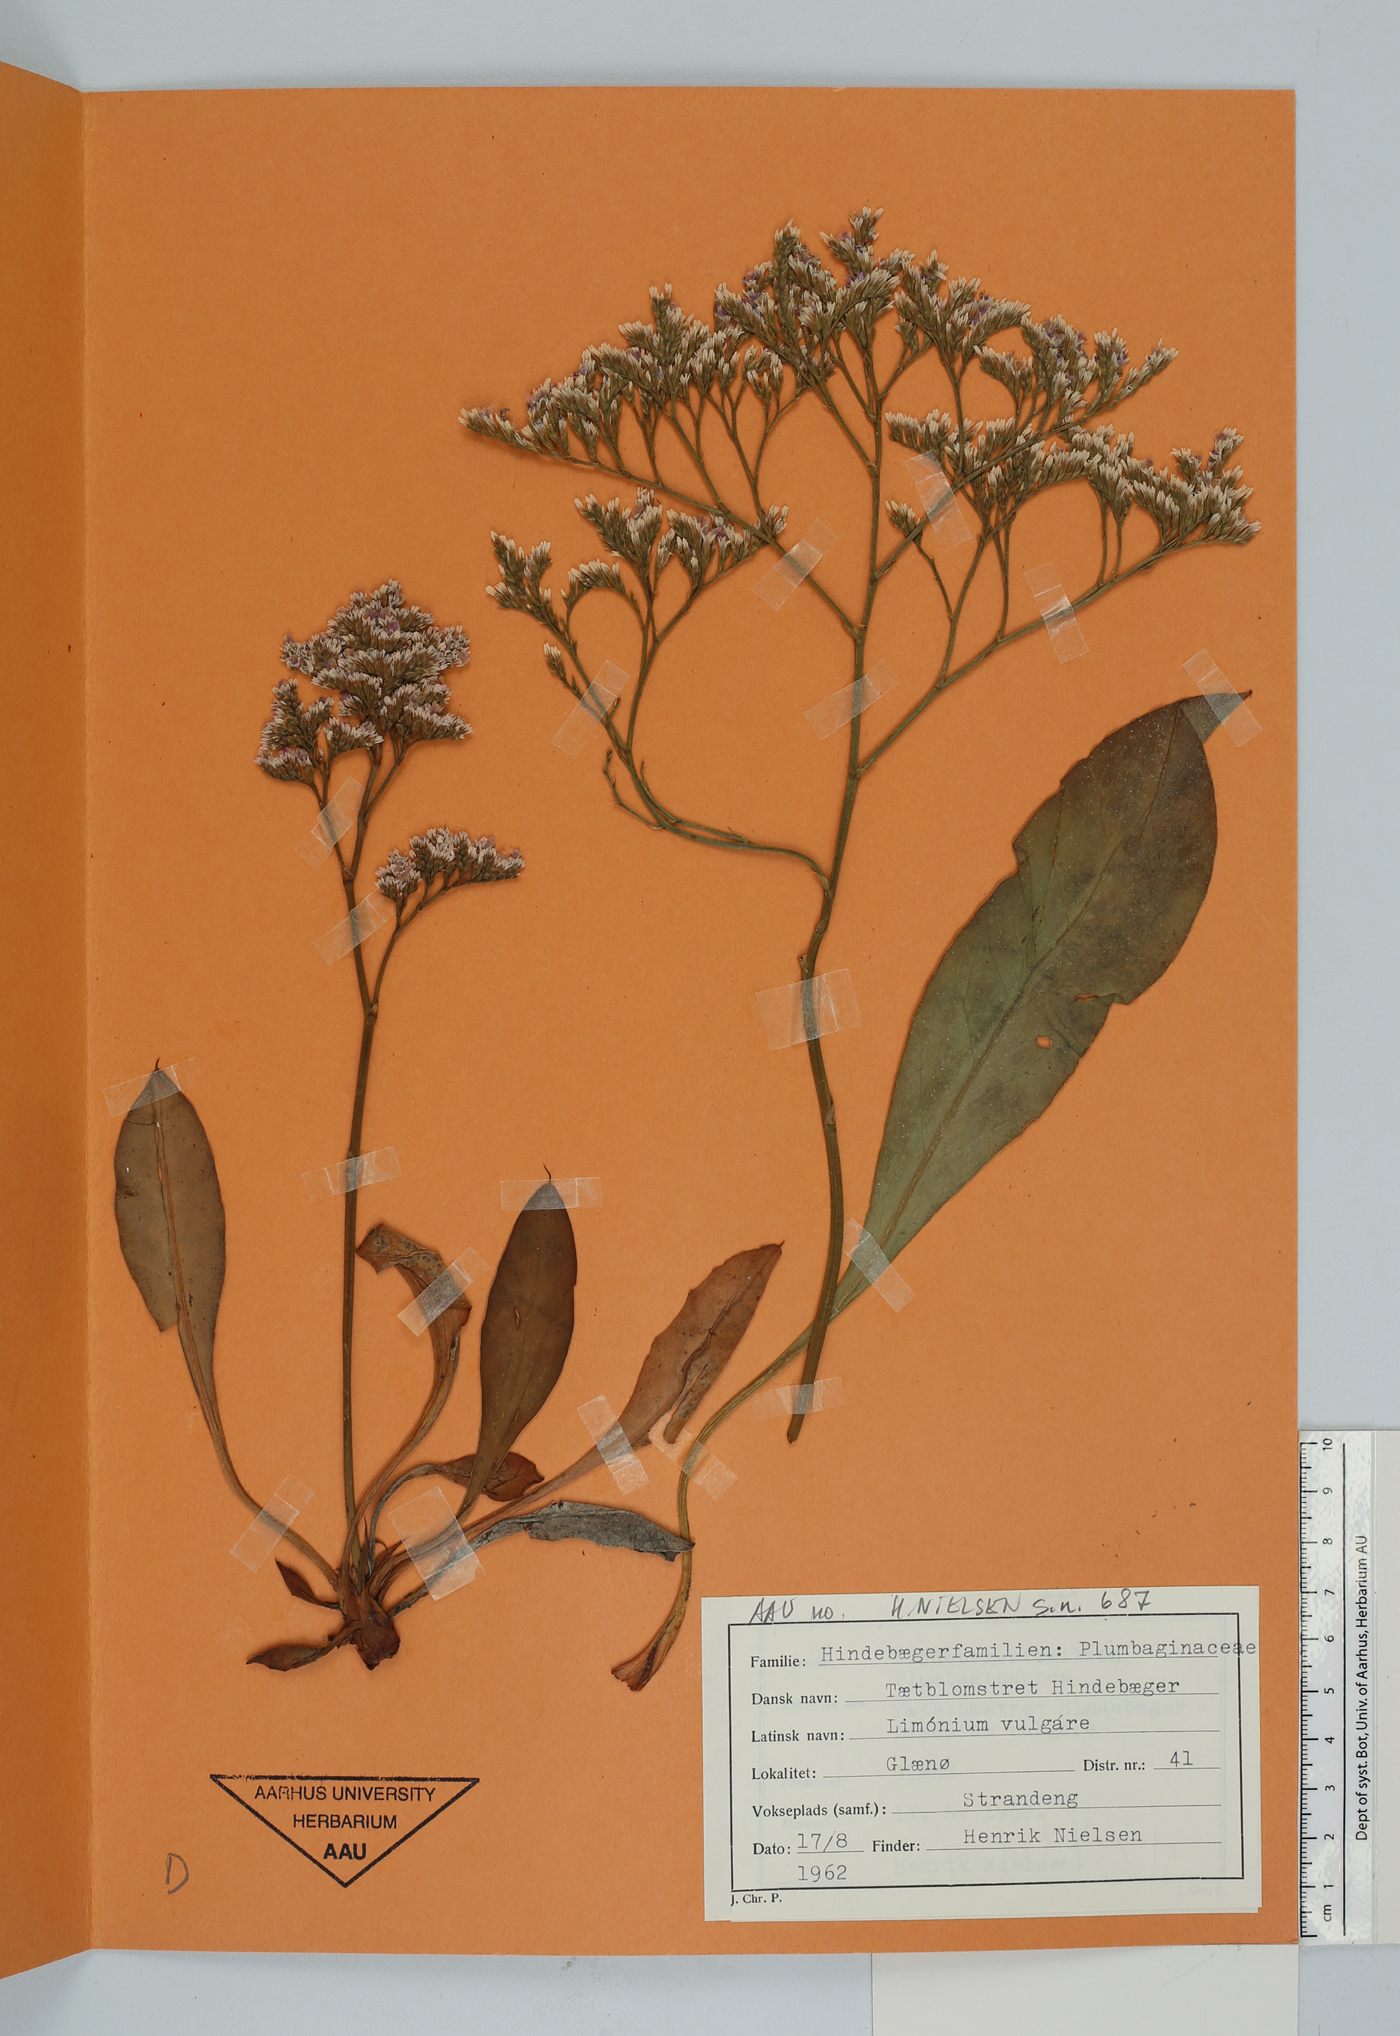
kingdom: Plantae
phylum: Tracheophyta
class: Magnoliopsida
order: Caryophyllales
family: Plumbaginaceae
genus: Limonium
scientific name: Limonium vulgare
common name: Common sea-lavender
